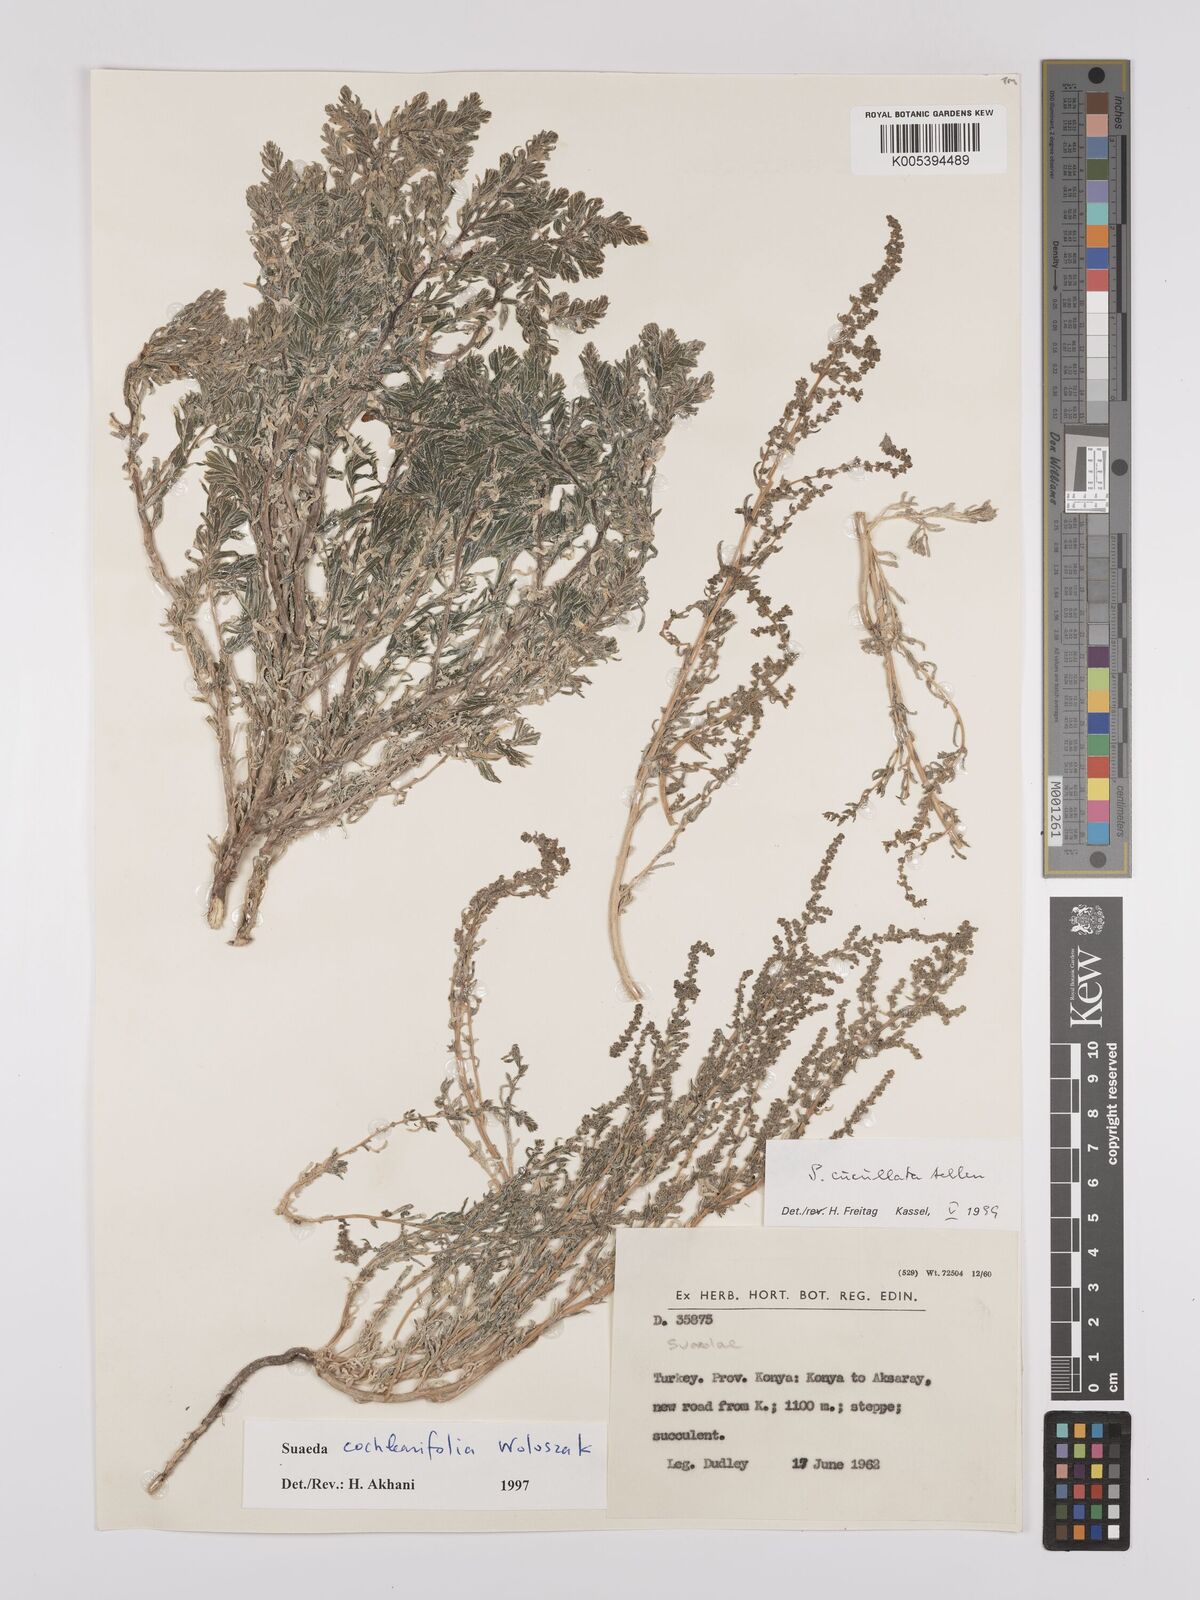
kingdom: Plantae
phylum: Tracheophyta
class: Magnoliopsida
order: Caryophyllales
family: Amaranthaceae
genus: Suaeda
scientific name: Suaeda cucullata
